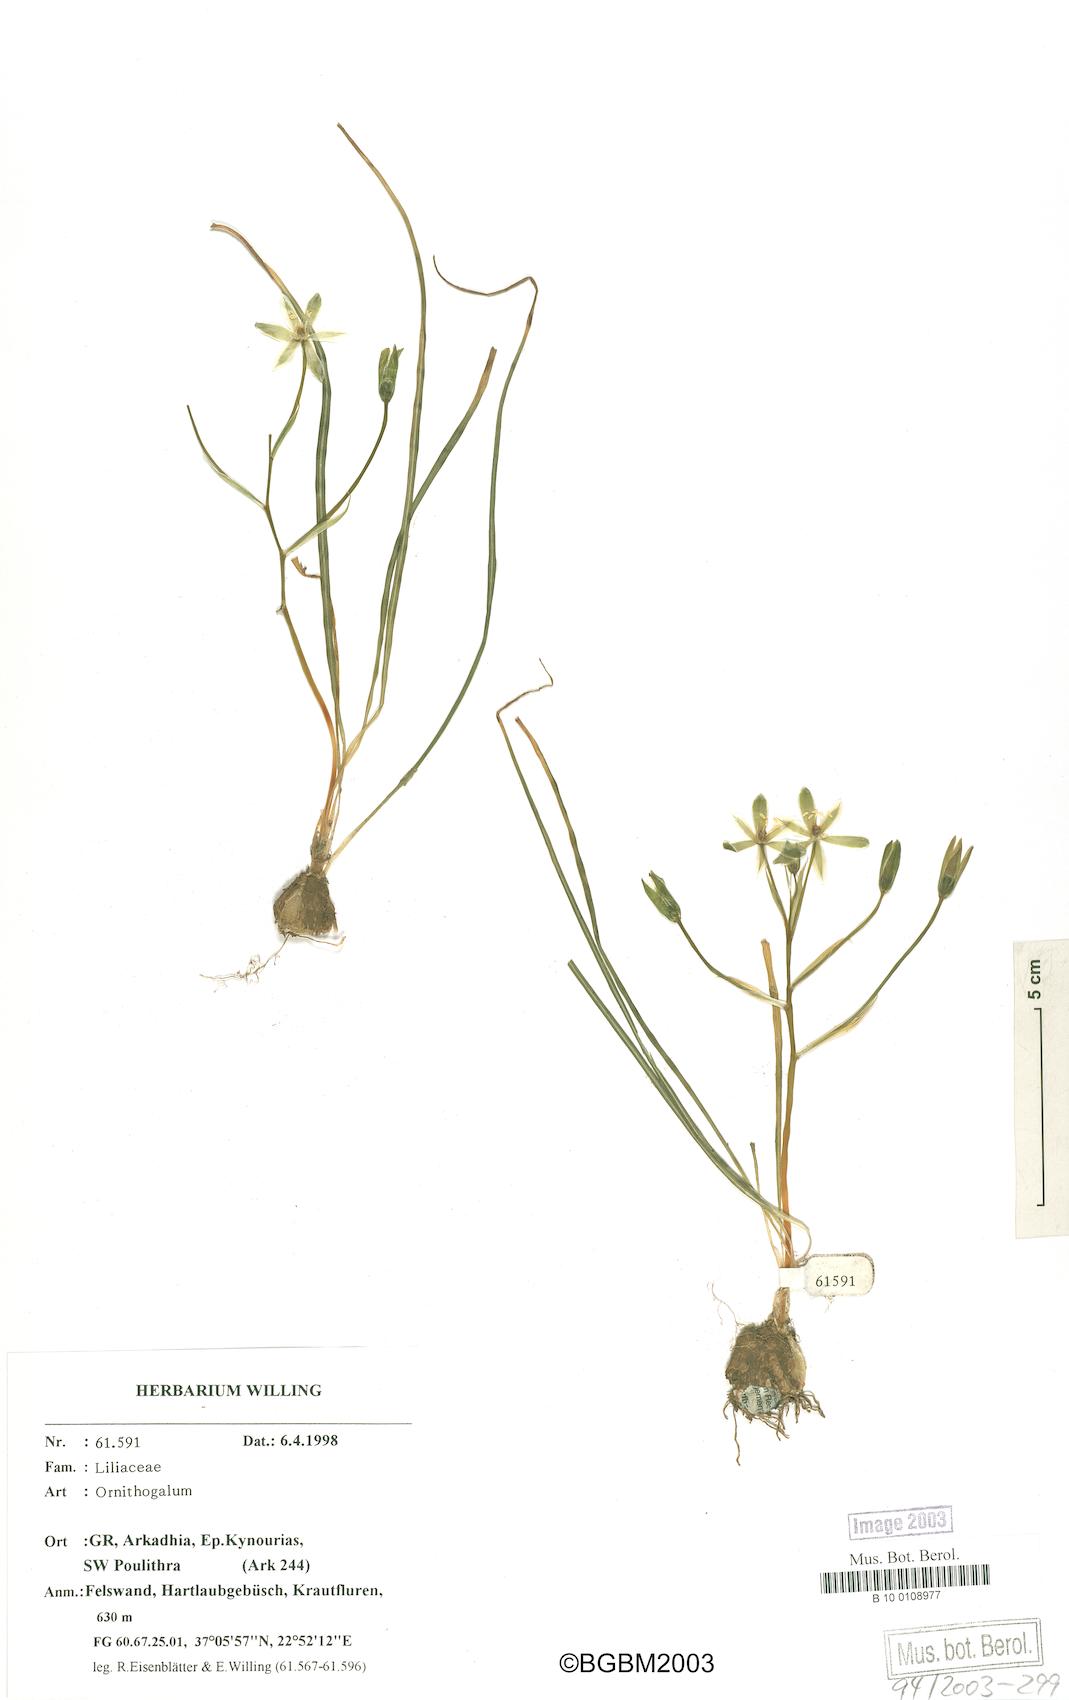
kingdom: Plantae
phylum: Tracheophyta
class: Liliopsida
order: Asparagales
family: Asparagaceae
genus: Ornithogalum
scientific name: Ornithogalum
